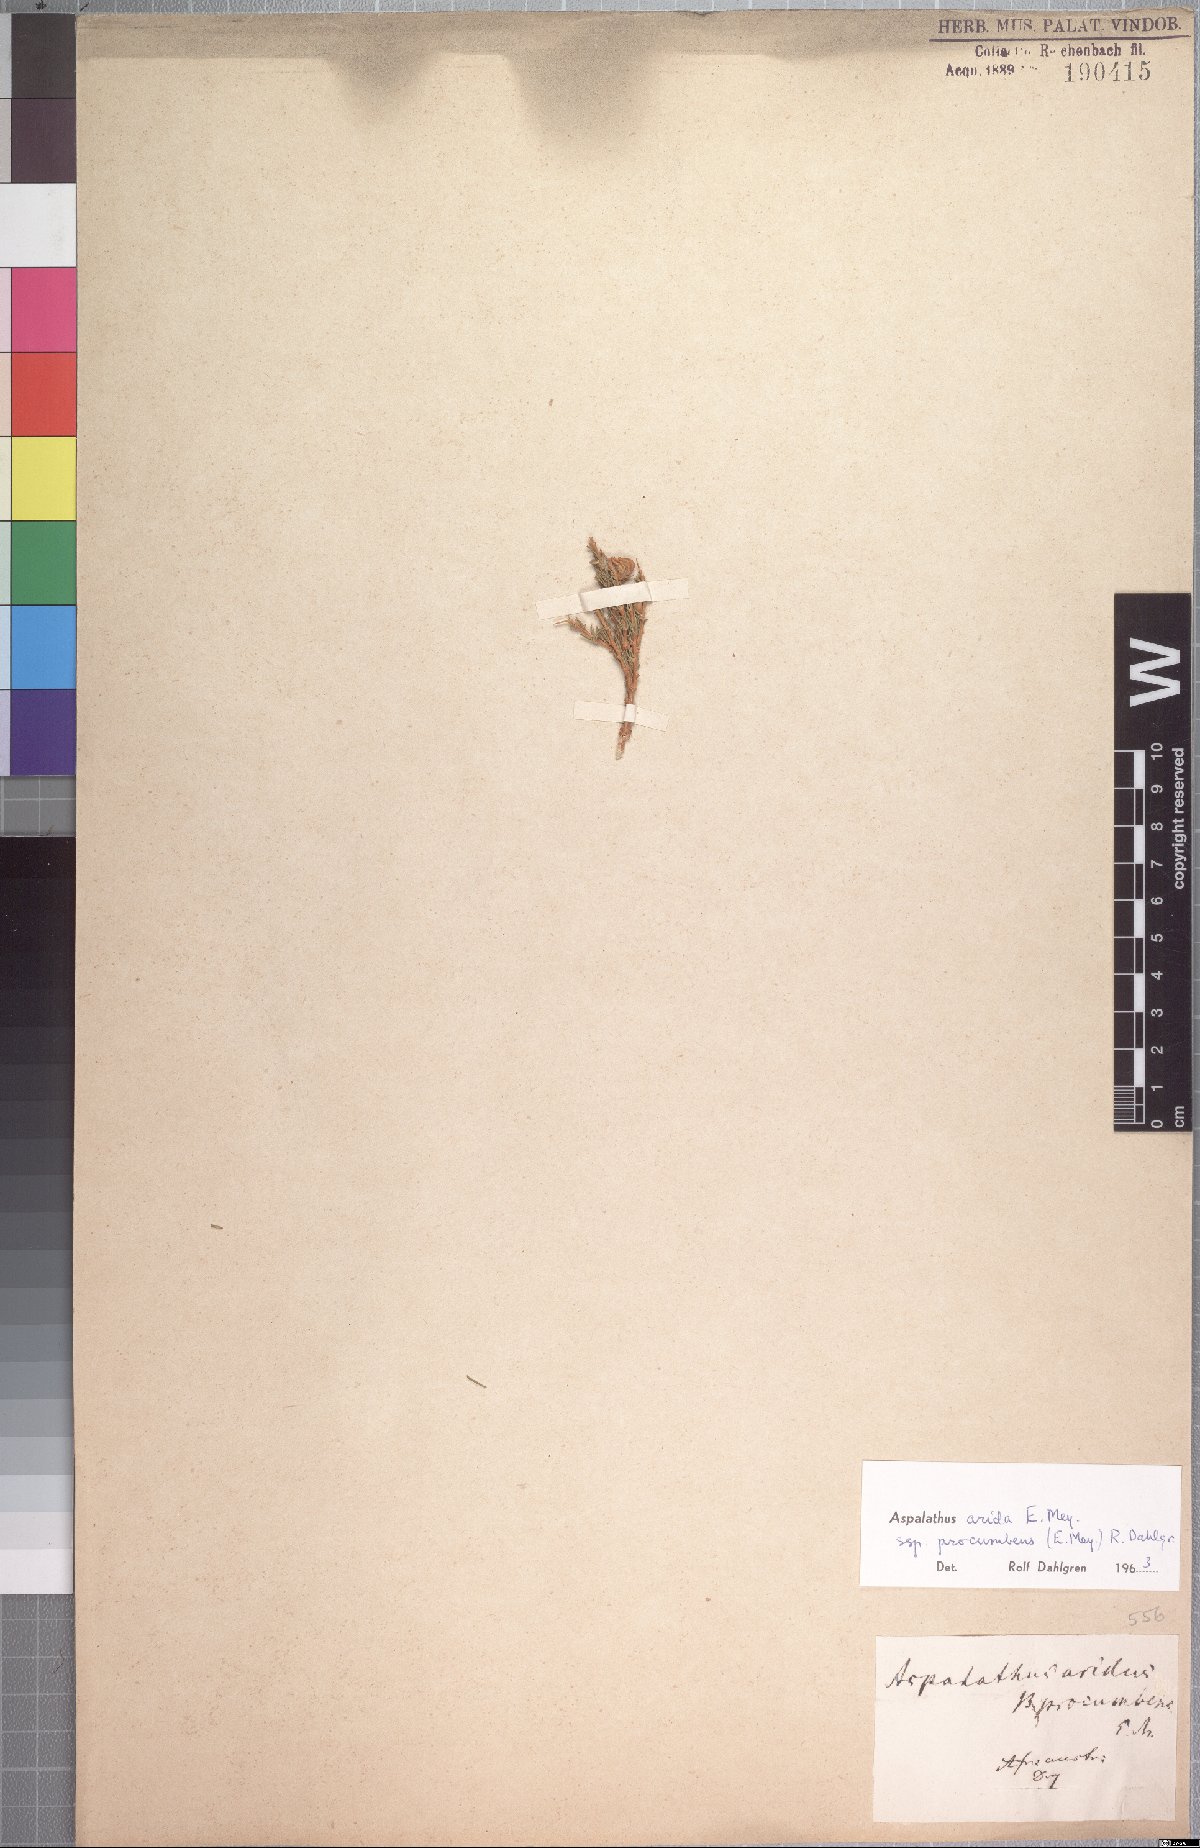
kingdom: Plantae
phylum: Tracheophyta
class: Magnoliopsida
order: Fabales
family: Fabaceae
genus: Aspalathus
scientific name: Aspalathus arida
